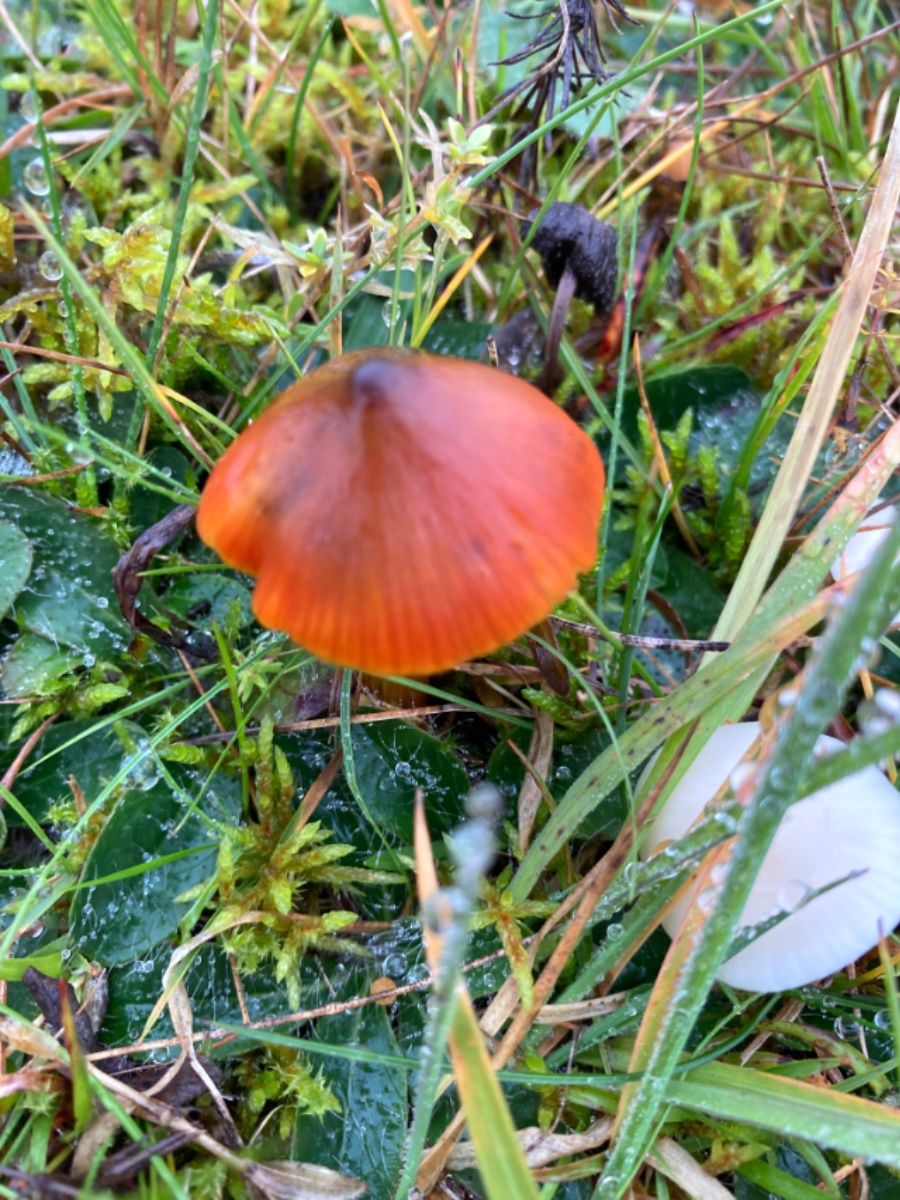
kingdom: Fungi
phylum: Basidiomycota
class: Agaricomycetes
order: Agaricales
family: Hygrophoraceae
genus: Hygrocybe
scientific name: Hygrocybe conica
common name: kegle-vokshat
